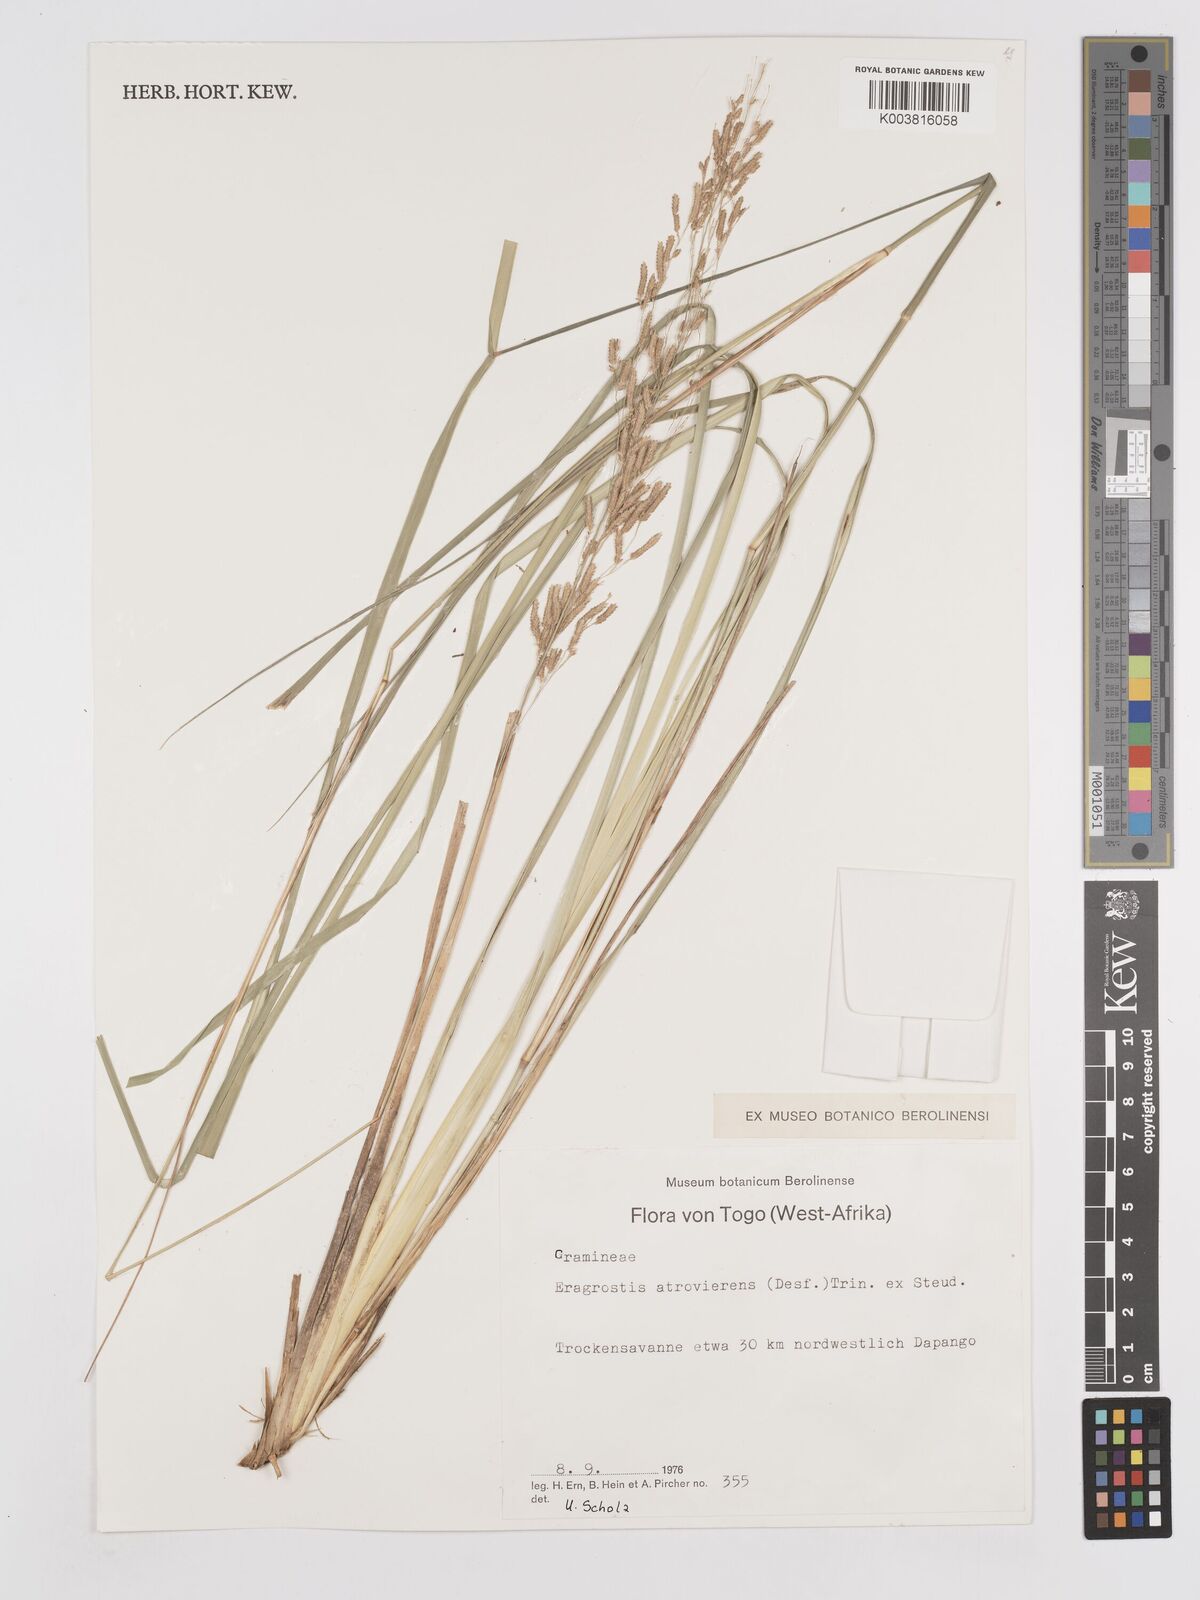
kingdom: Plantae
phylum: Tracheophyta
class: Liliopsida
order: Poales
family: Poaceae
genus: Eragrostis
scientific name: Eragrostis atrovirens
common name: Thalia lovegrass
